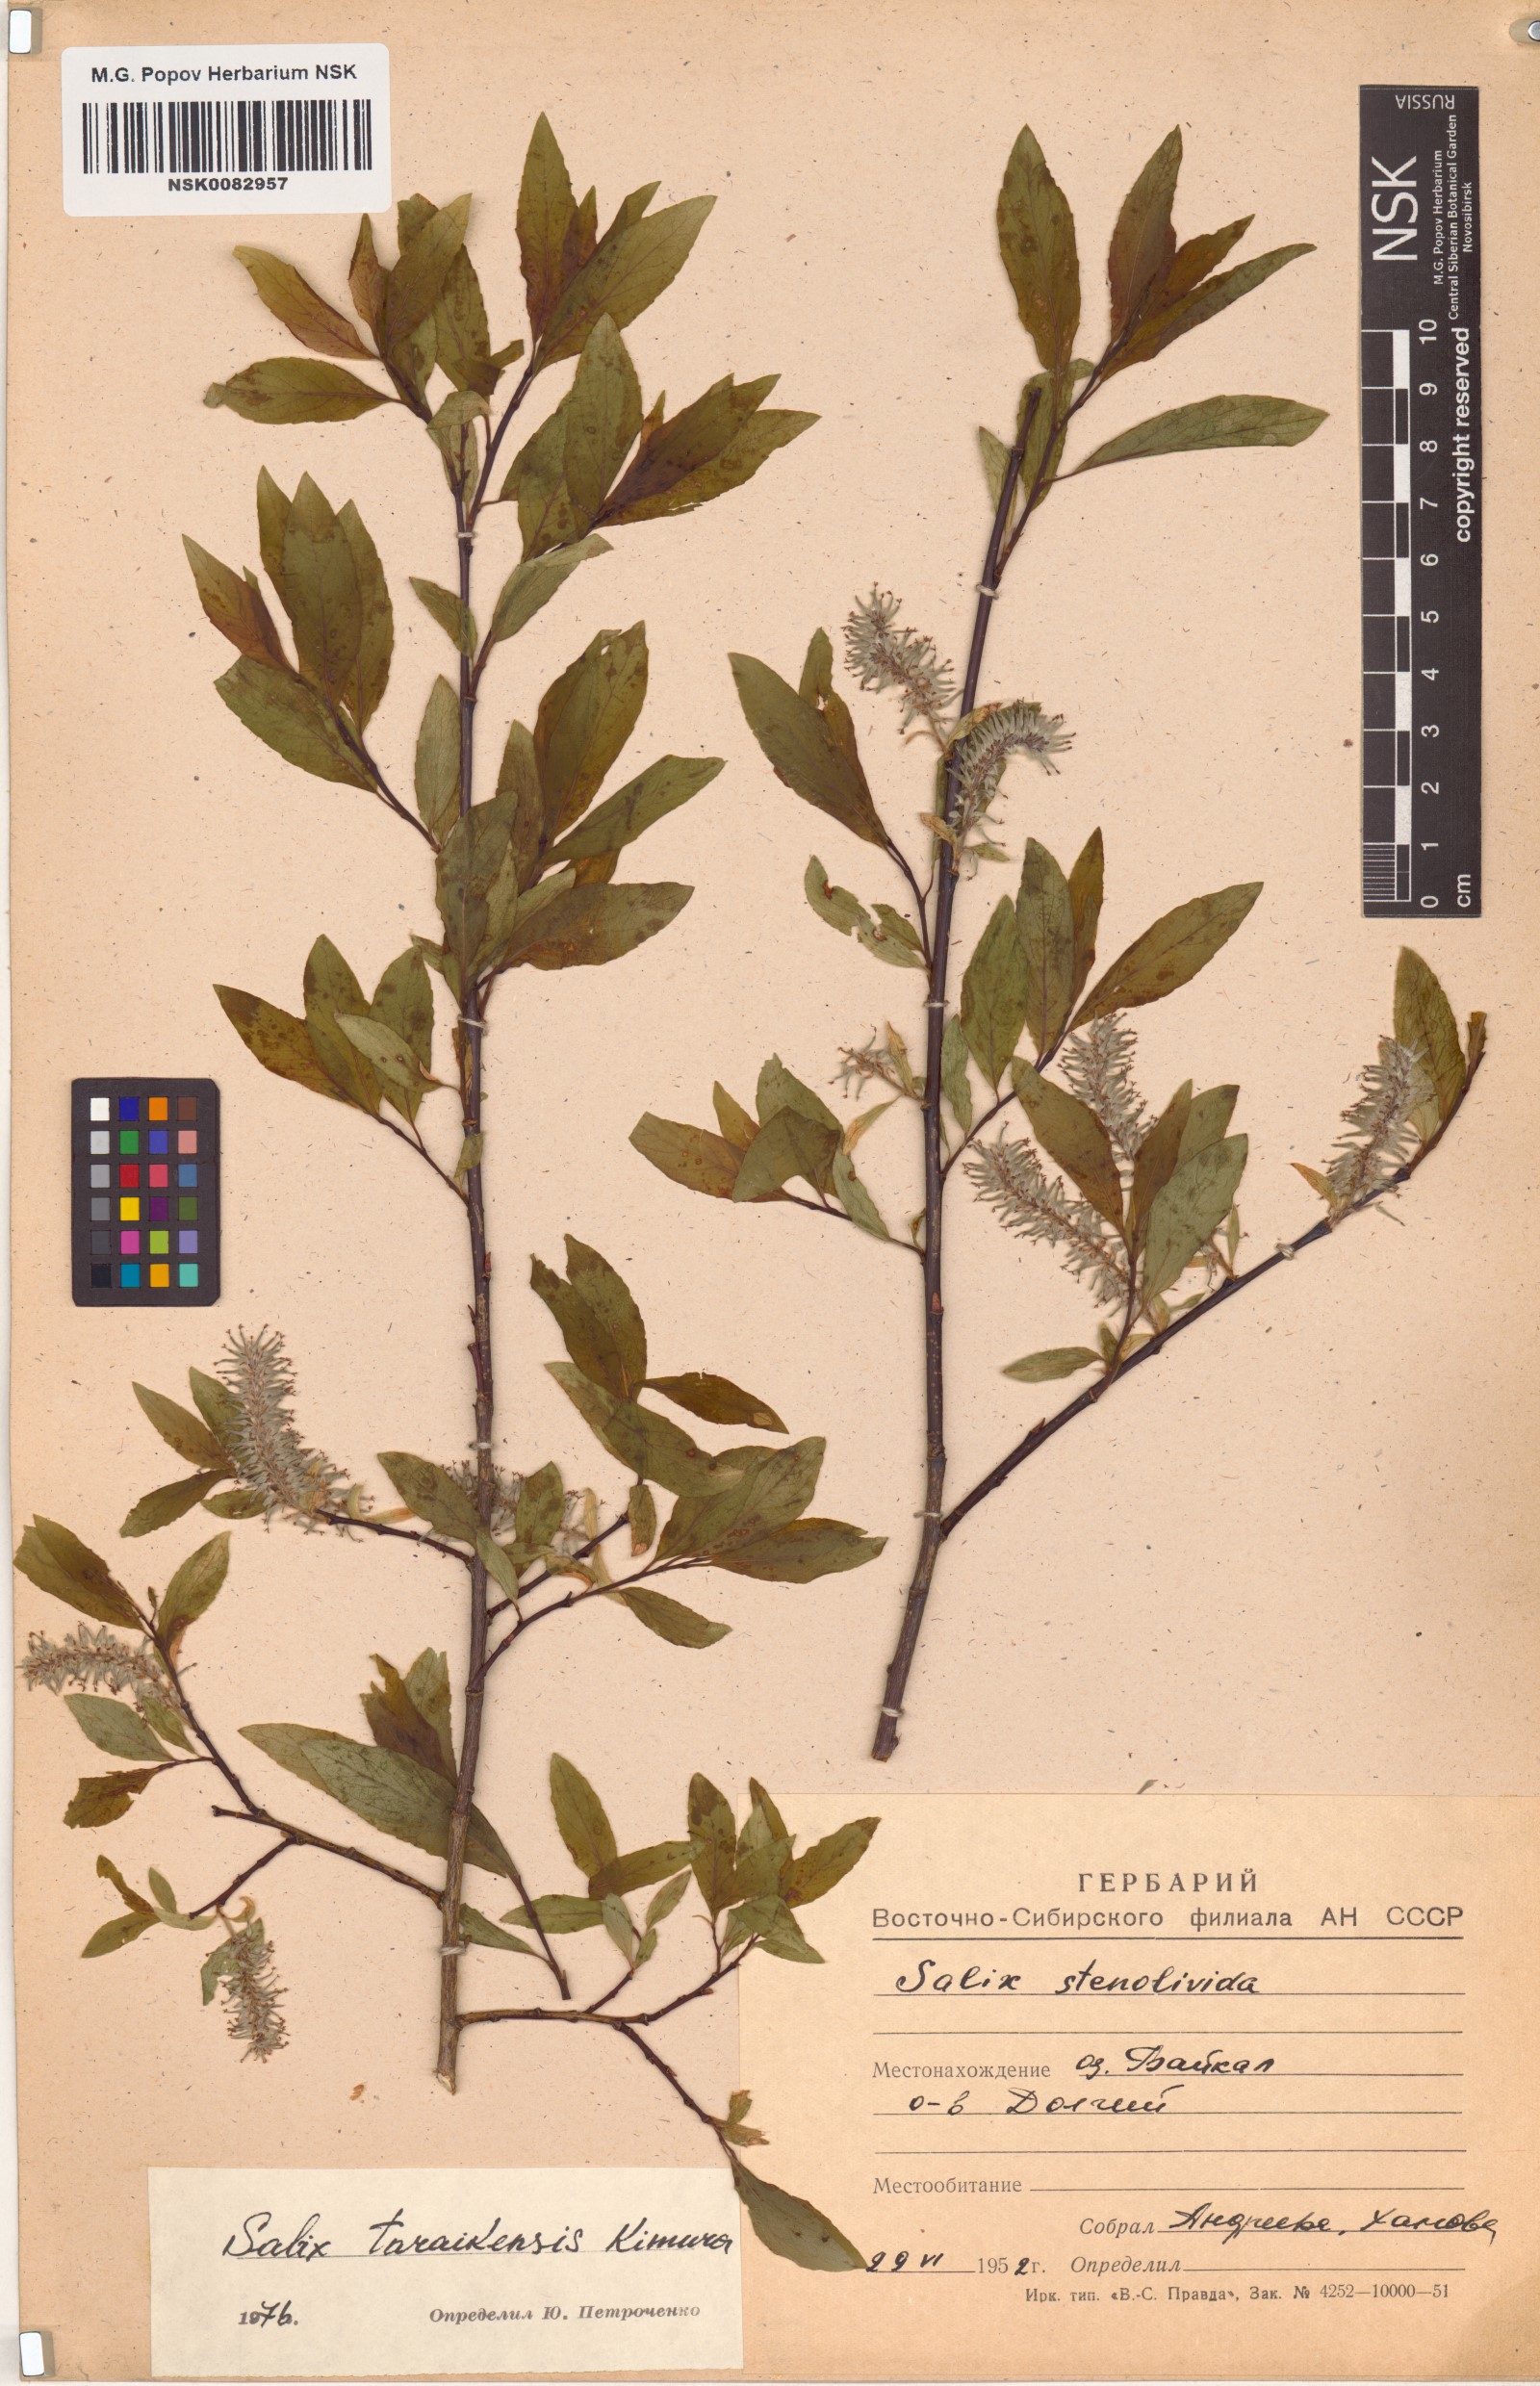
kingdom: Plantae
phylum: Tracheophyta
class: Magnoliopsida
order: Malpighiales
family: Salicaceae
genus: Salix
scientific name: Salix taraikensis
